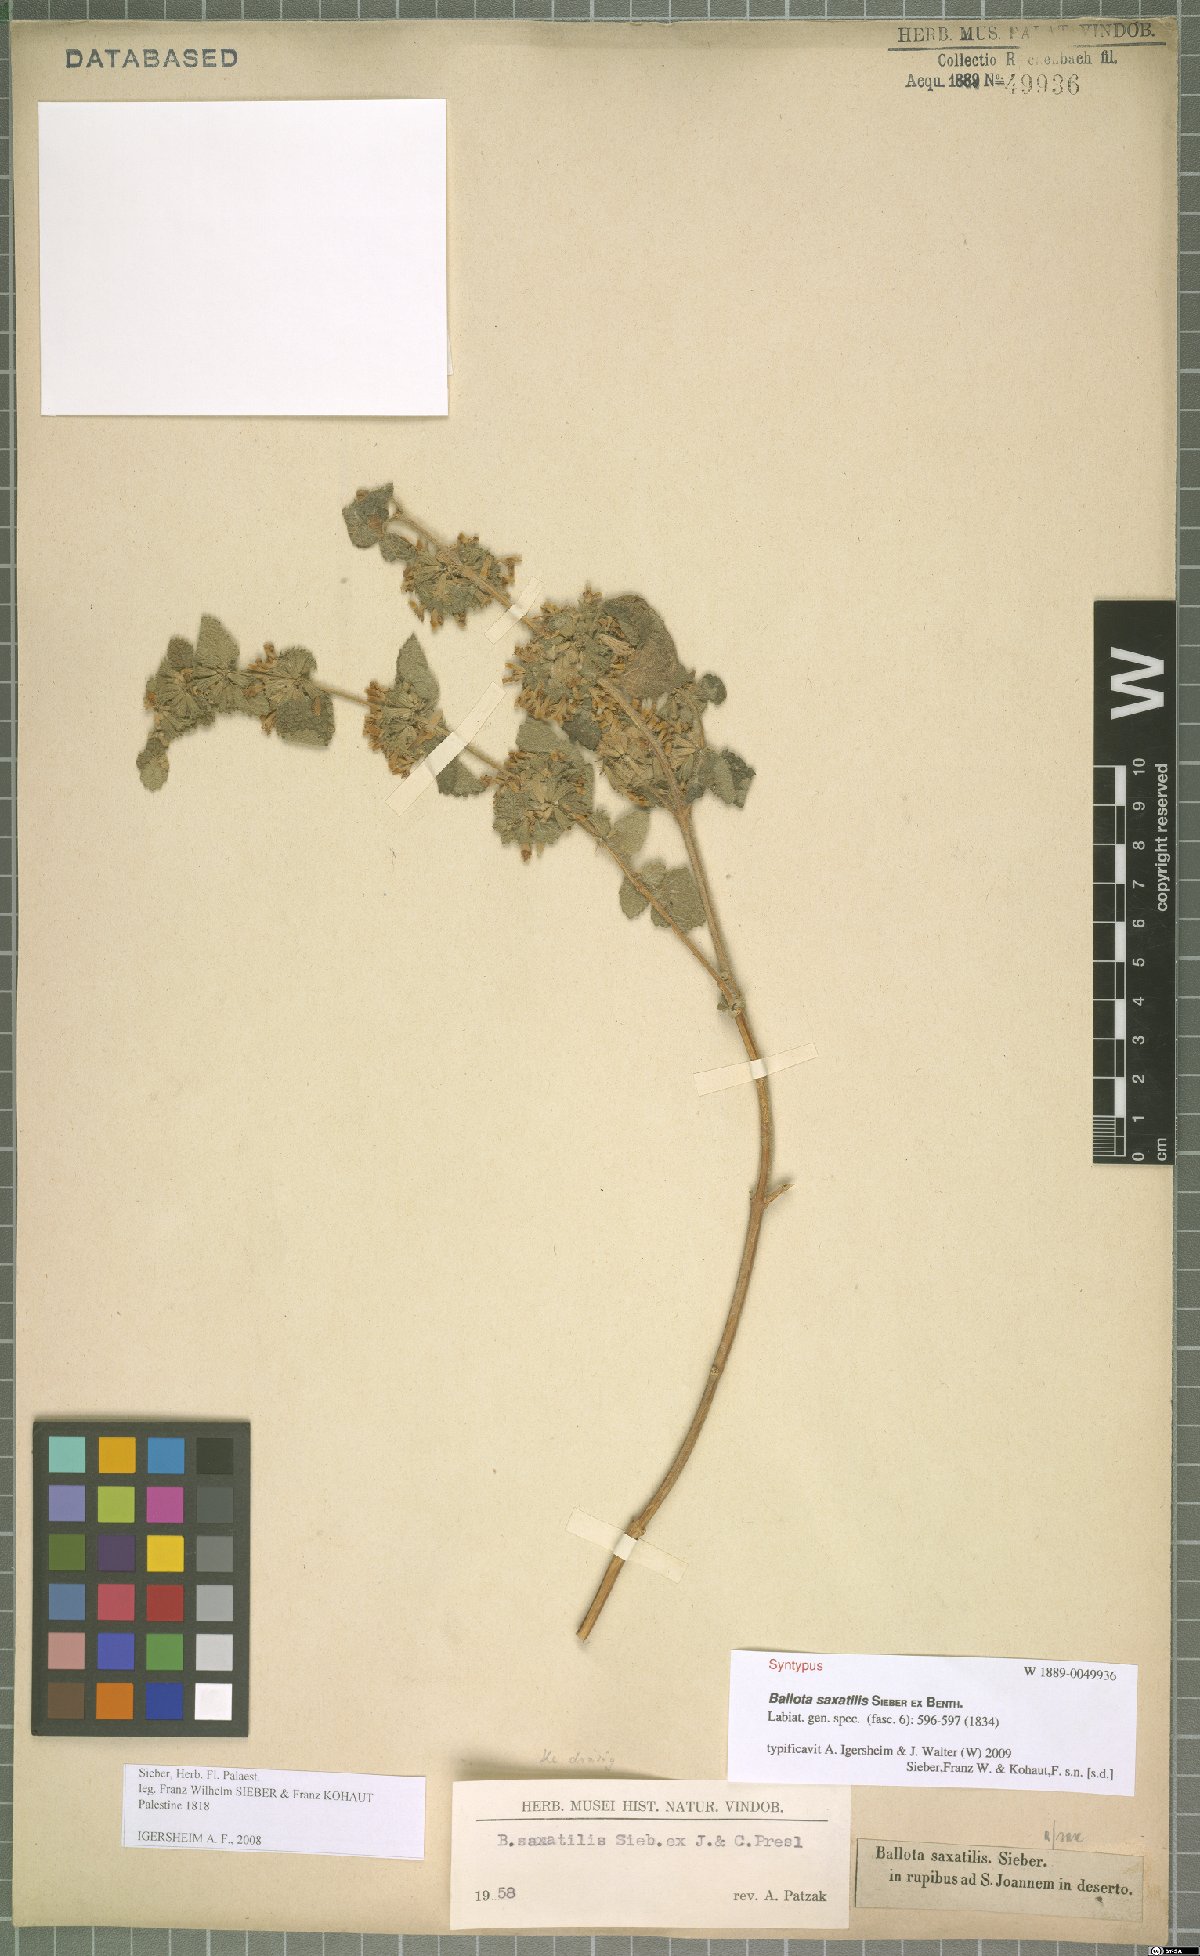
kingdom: Plantae
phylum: Tracheophyta
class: Magnoliopsida
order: Lamiales
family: Lamiaceae
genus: Ballota
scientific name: Ballota saxatilis
